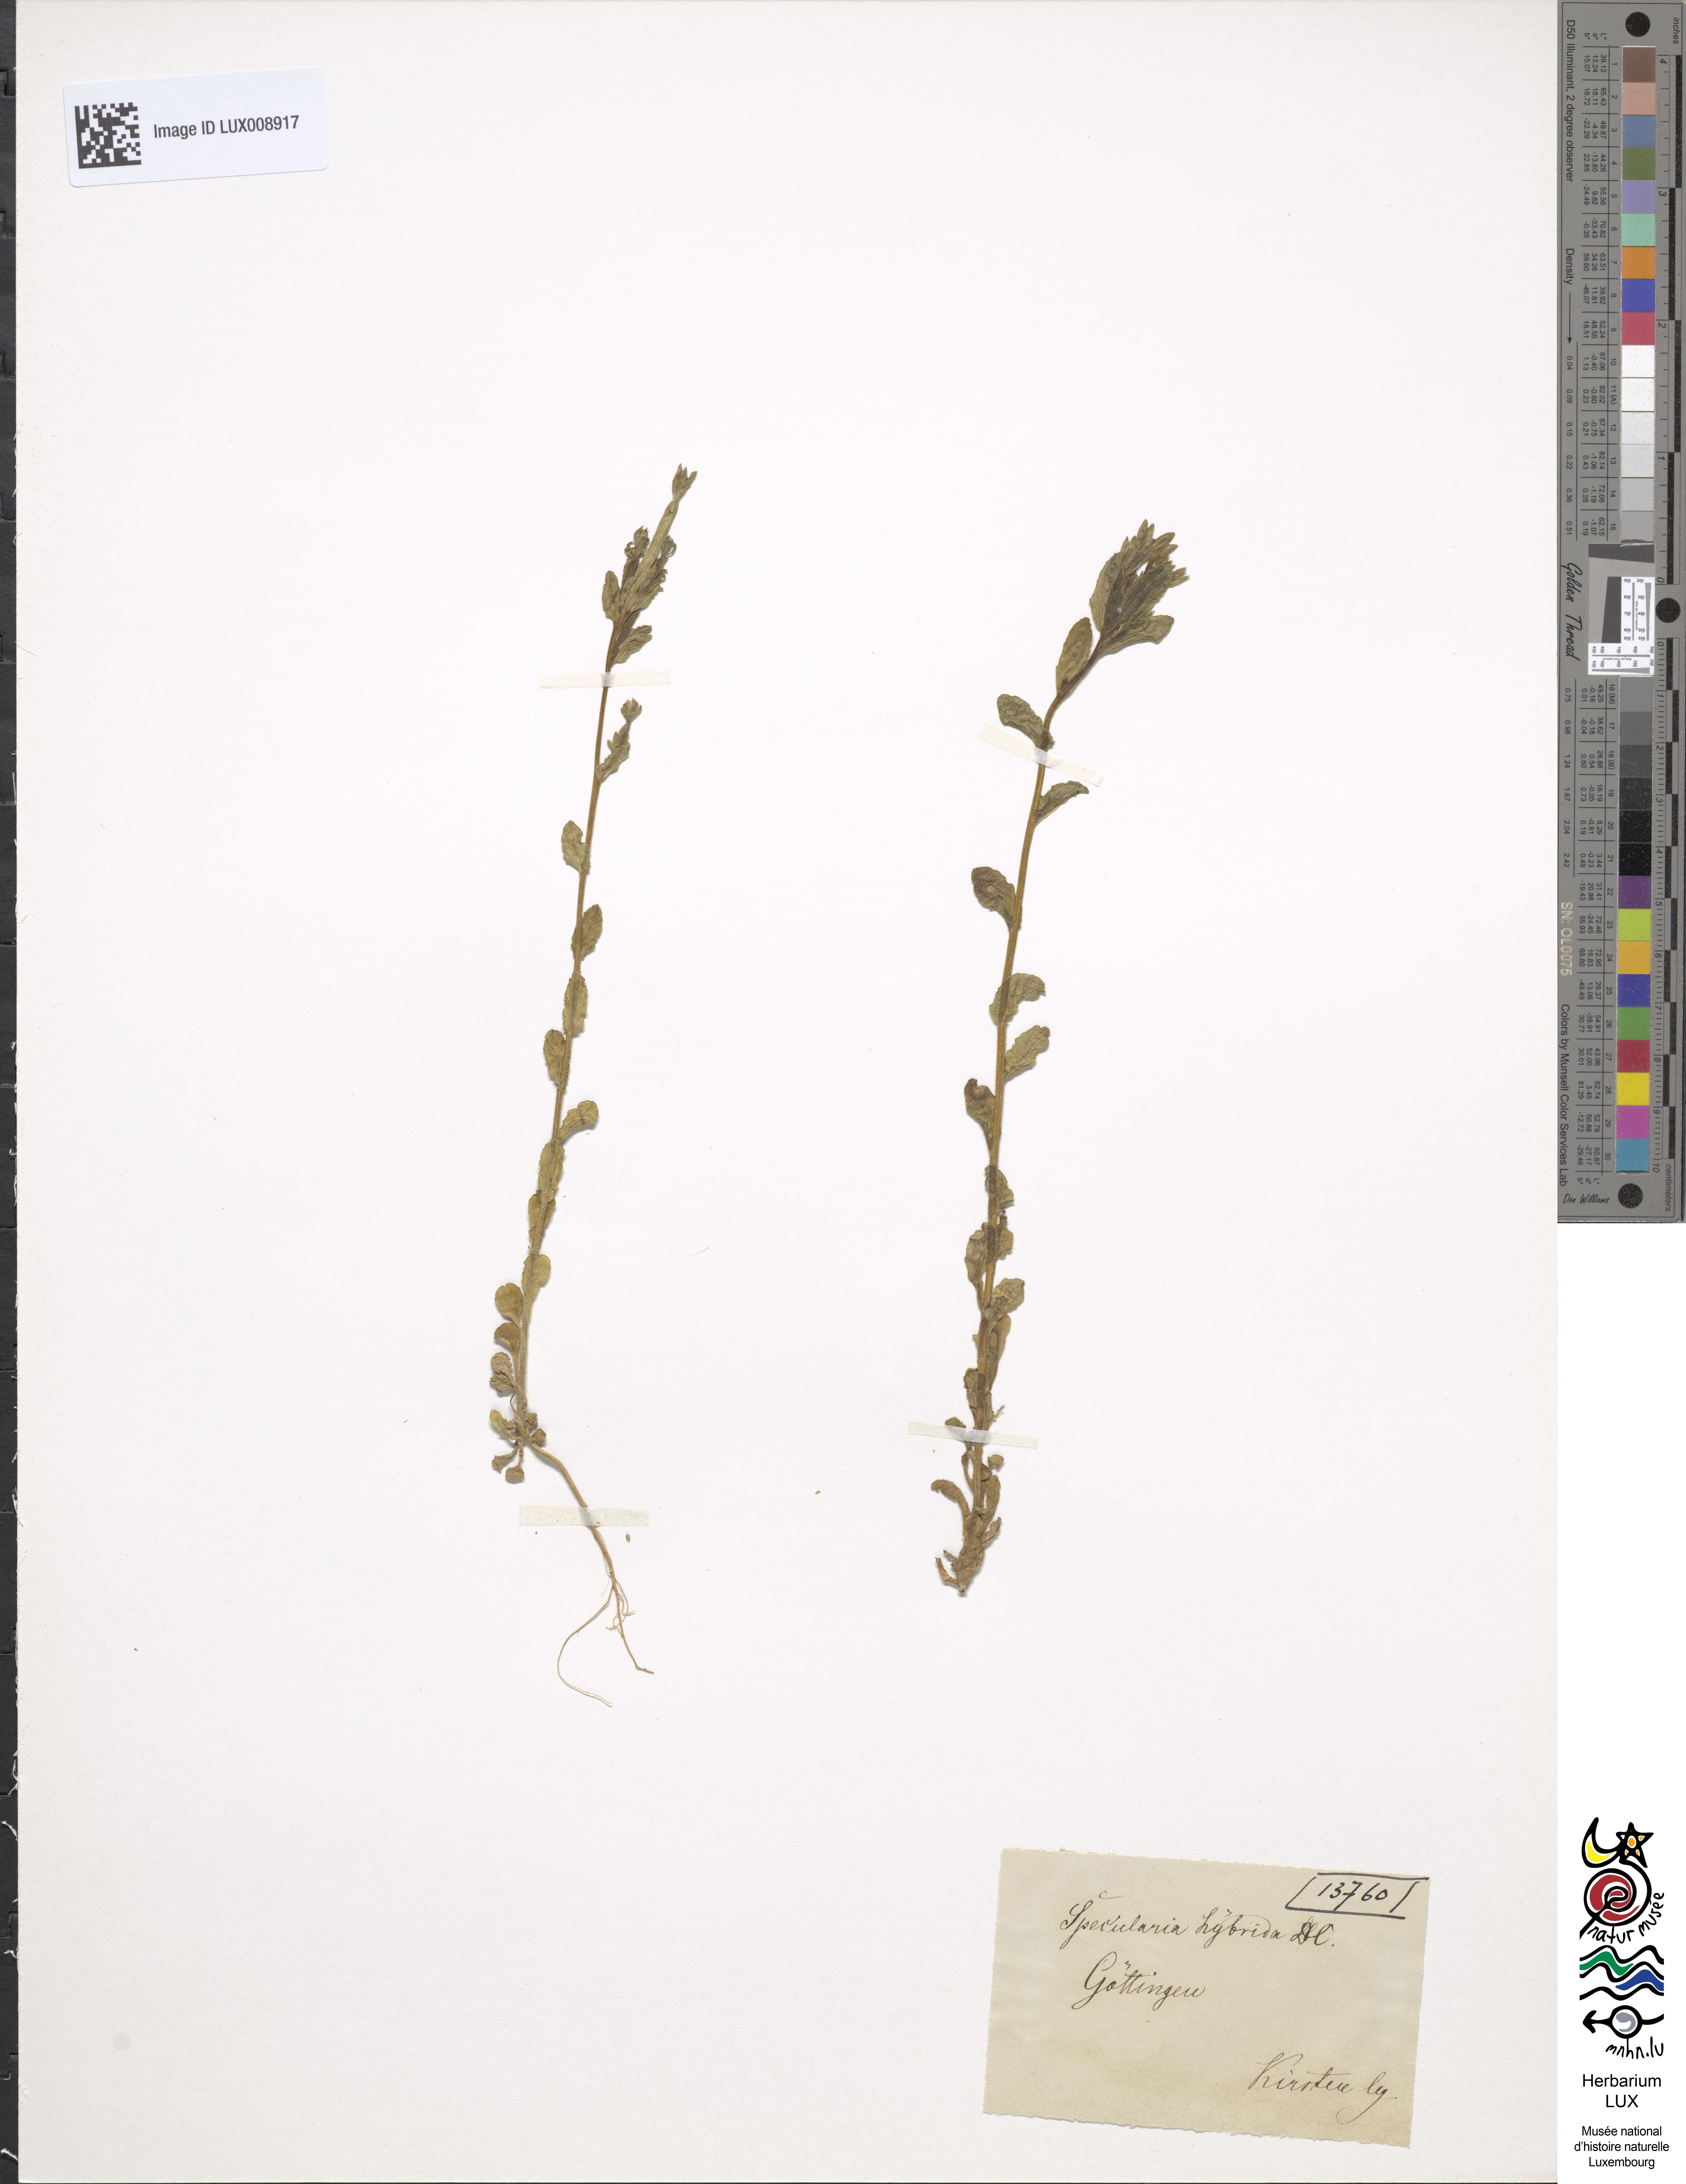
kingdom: Plantae
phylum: Tracheophyta
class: Magnoliopsida
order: Asterales
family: Campanulaceae
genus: Legousia
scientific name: Legousia hybrida
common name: Venus's-looking-glass
